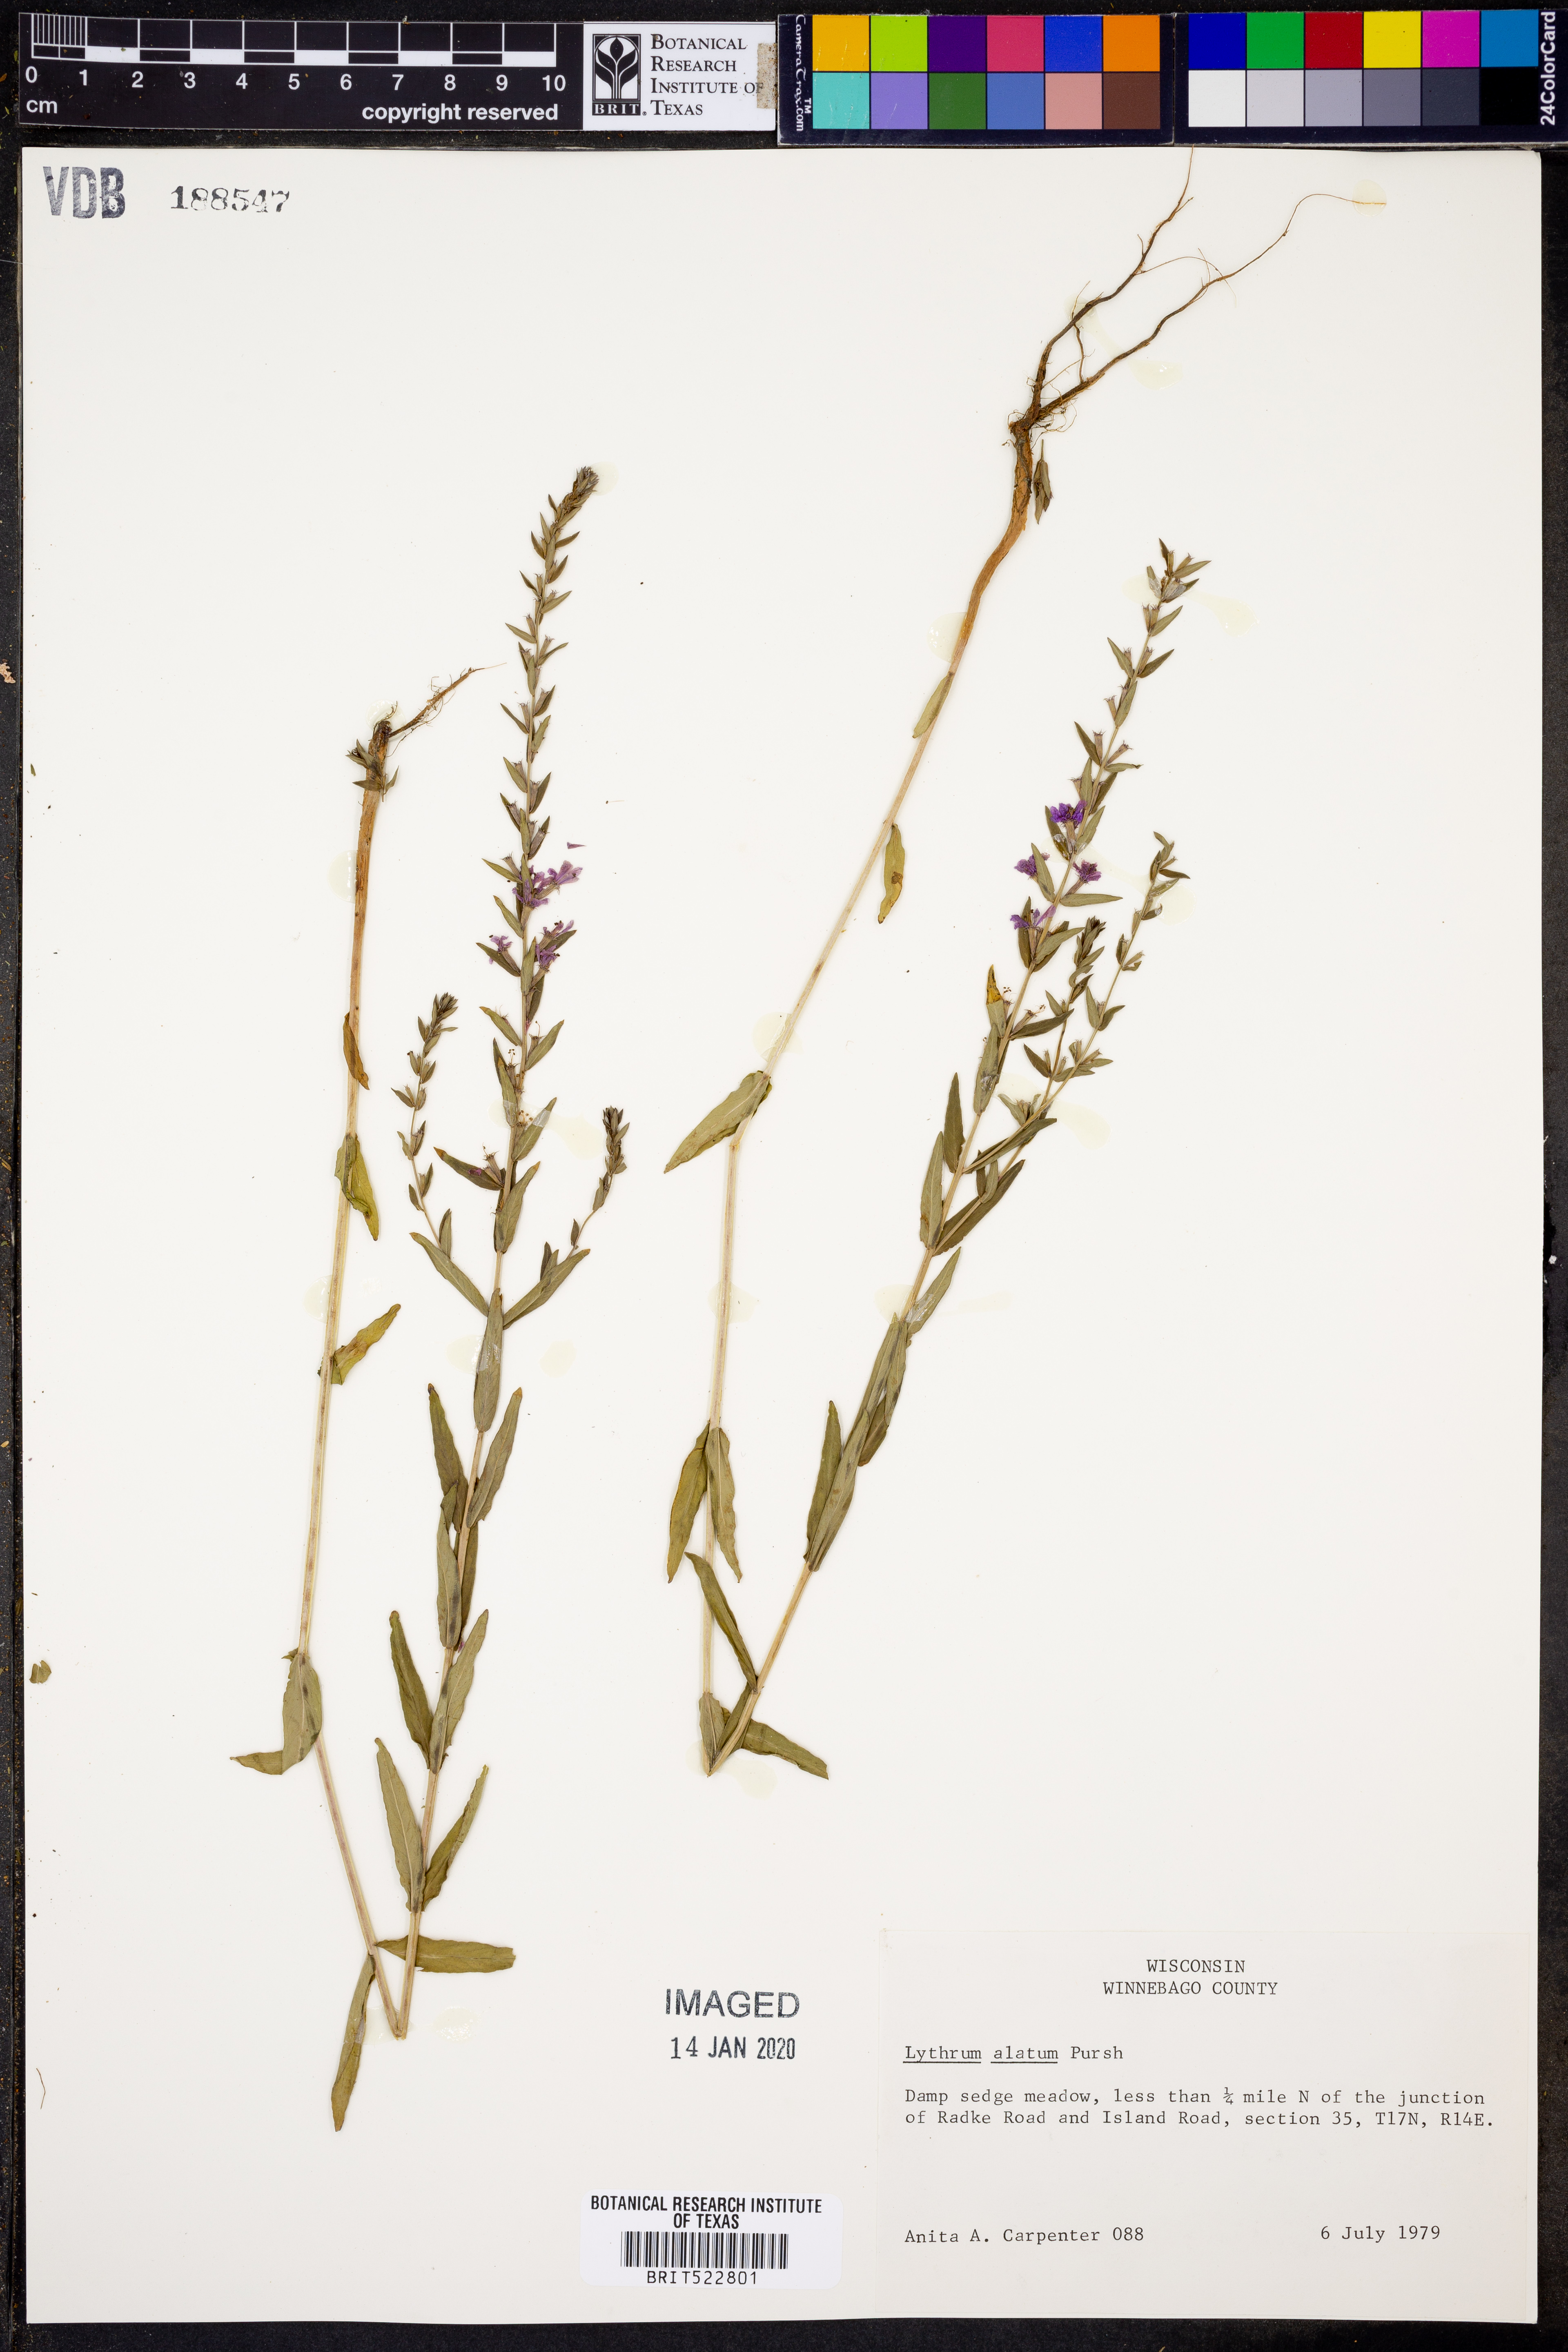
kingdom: Plantae
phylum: Tracheophyta
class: Magnoliopsida
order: Myrtales
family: Lythraceae
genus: Lythrum
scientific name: Lythrum alatum
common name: Winged loosestrife
